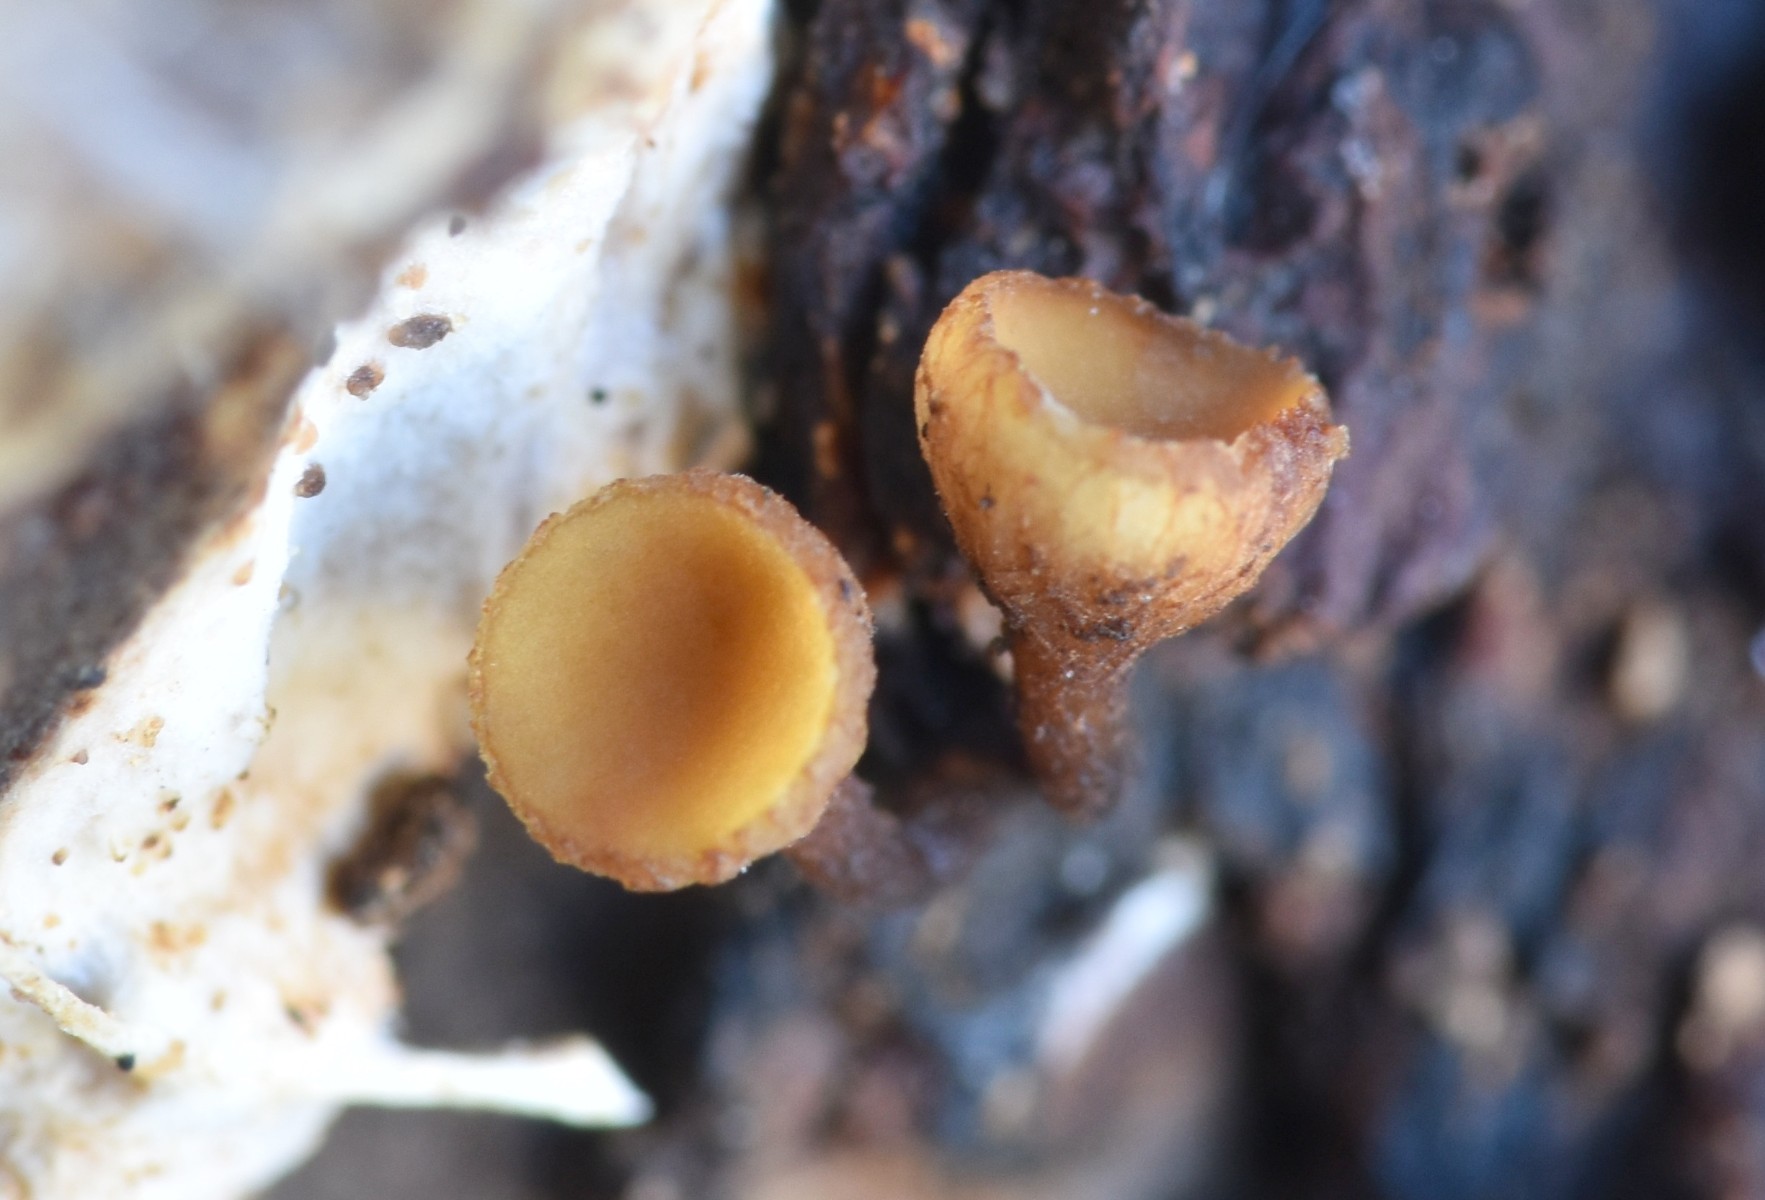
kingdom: Fungi
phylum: Ascomycota
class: Leotiomycetes
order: Helotiales
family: Rutstroemiaceae
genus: Rutstroemia
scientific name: Rutstroemia firma
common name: gren-brunskive
